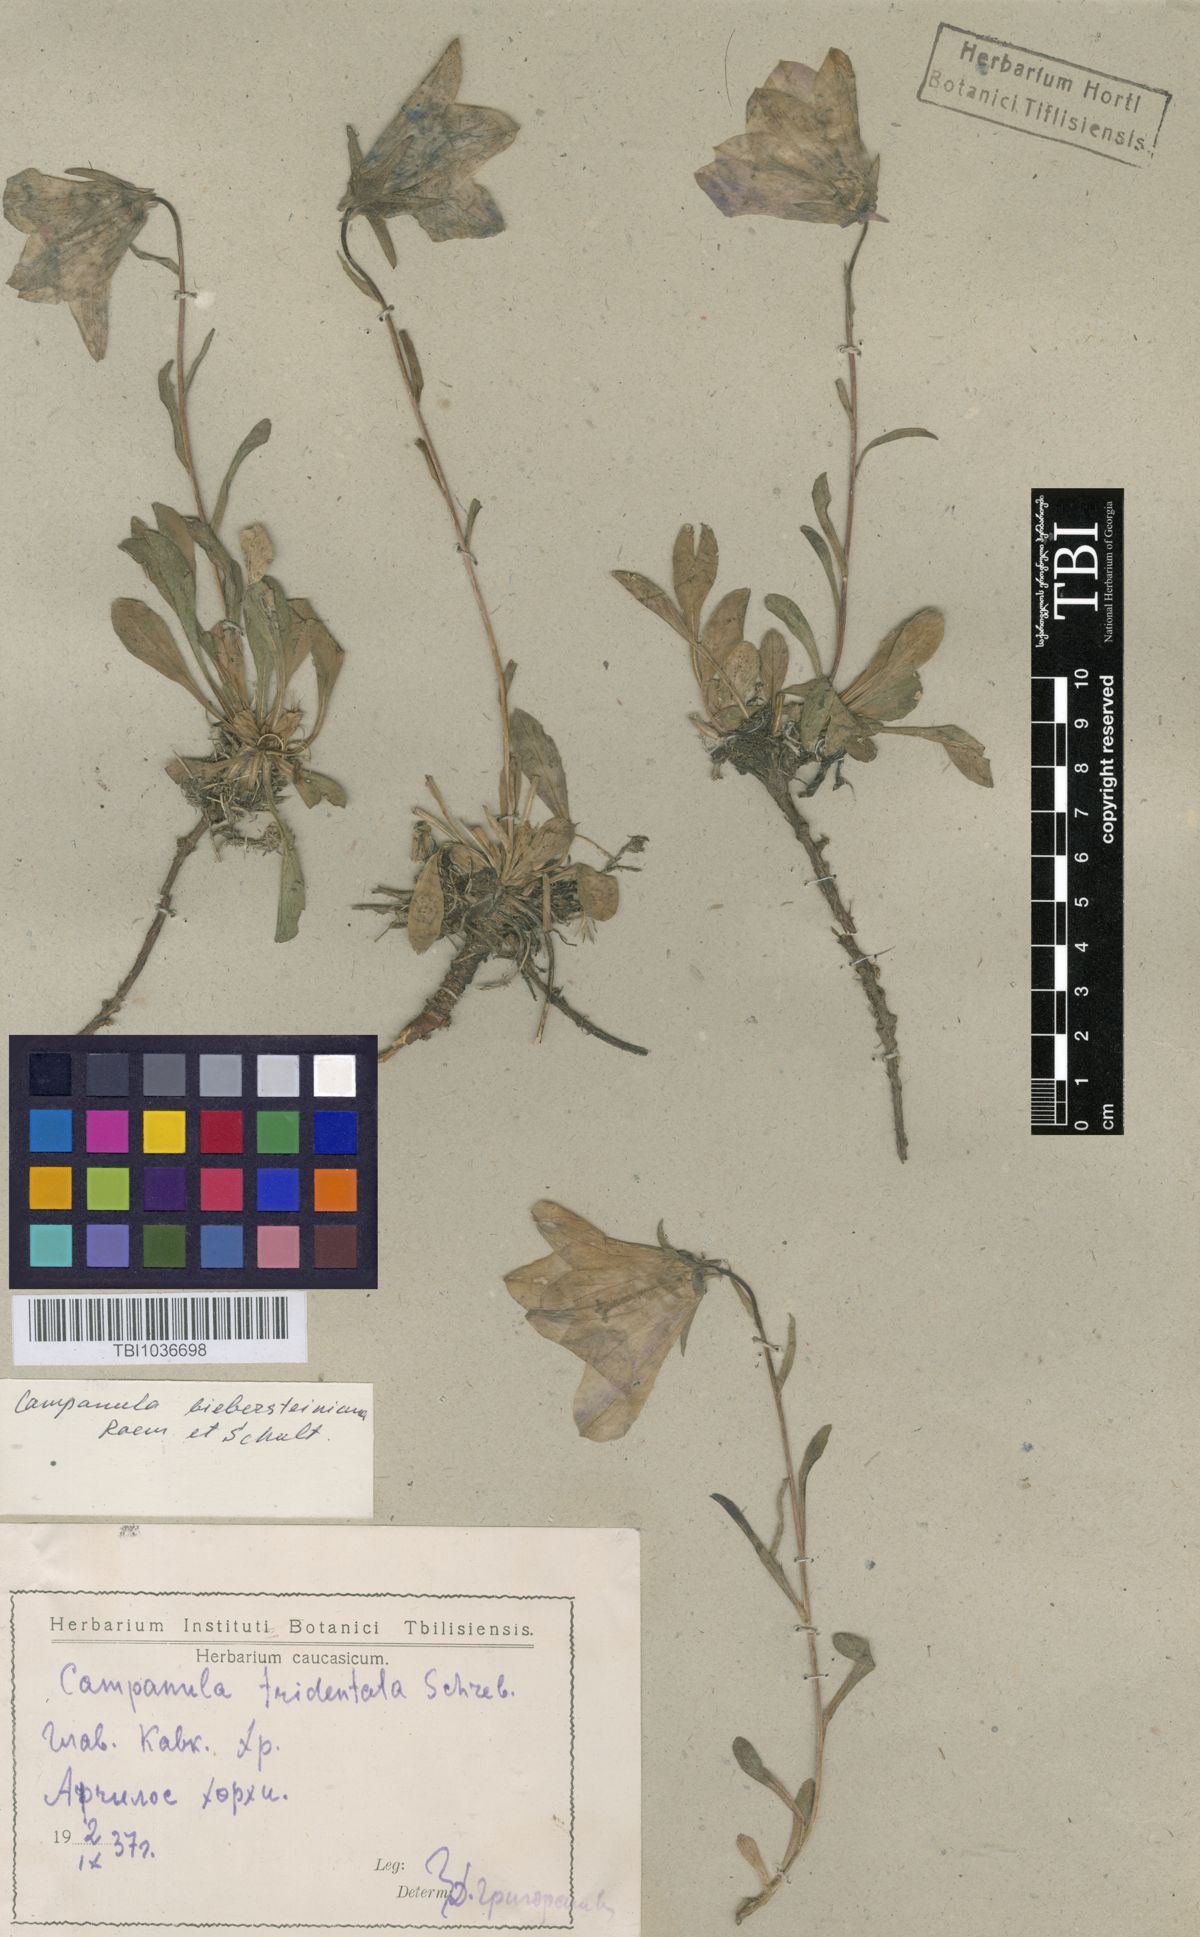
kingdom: Plantae
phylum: Tracheophyta
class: Magnoliopsida
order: Asterales
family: Campanulaceae
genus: Campanula
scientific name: Campanula tridentata
